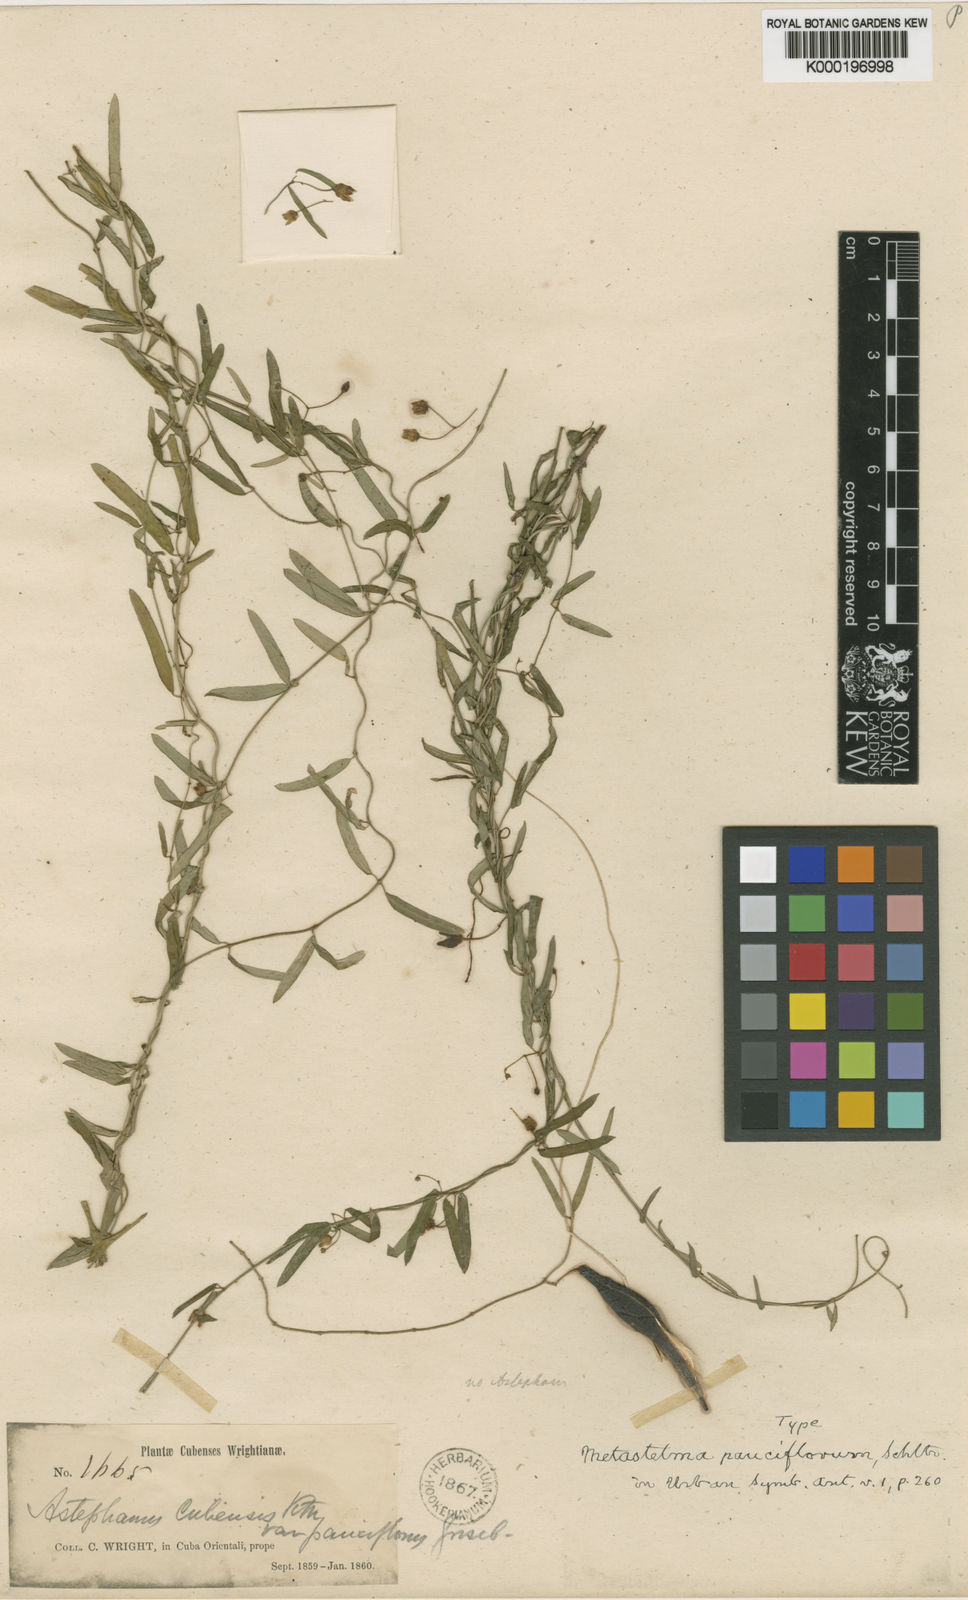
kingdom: Plantae
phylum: Tracheophyta
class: Magnoliopsida
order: Gentianales
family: Apocynaceae
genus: Metastelma
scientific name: Metastelma pauciflorum
